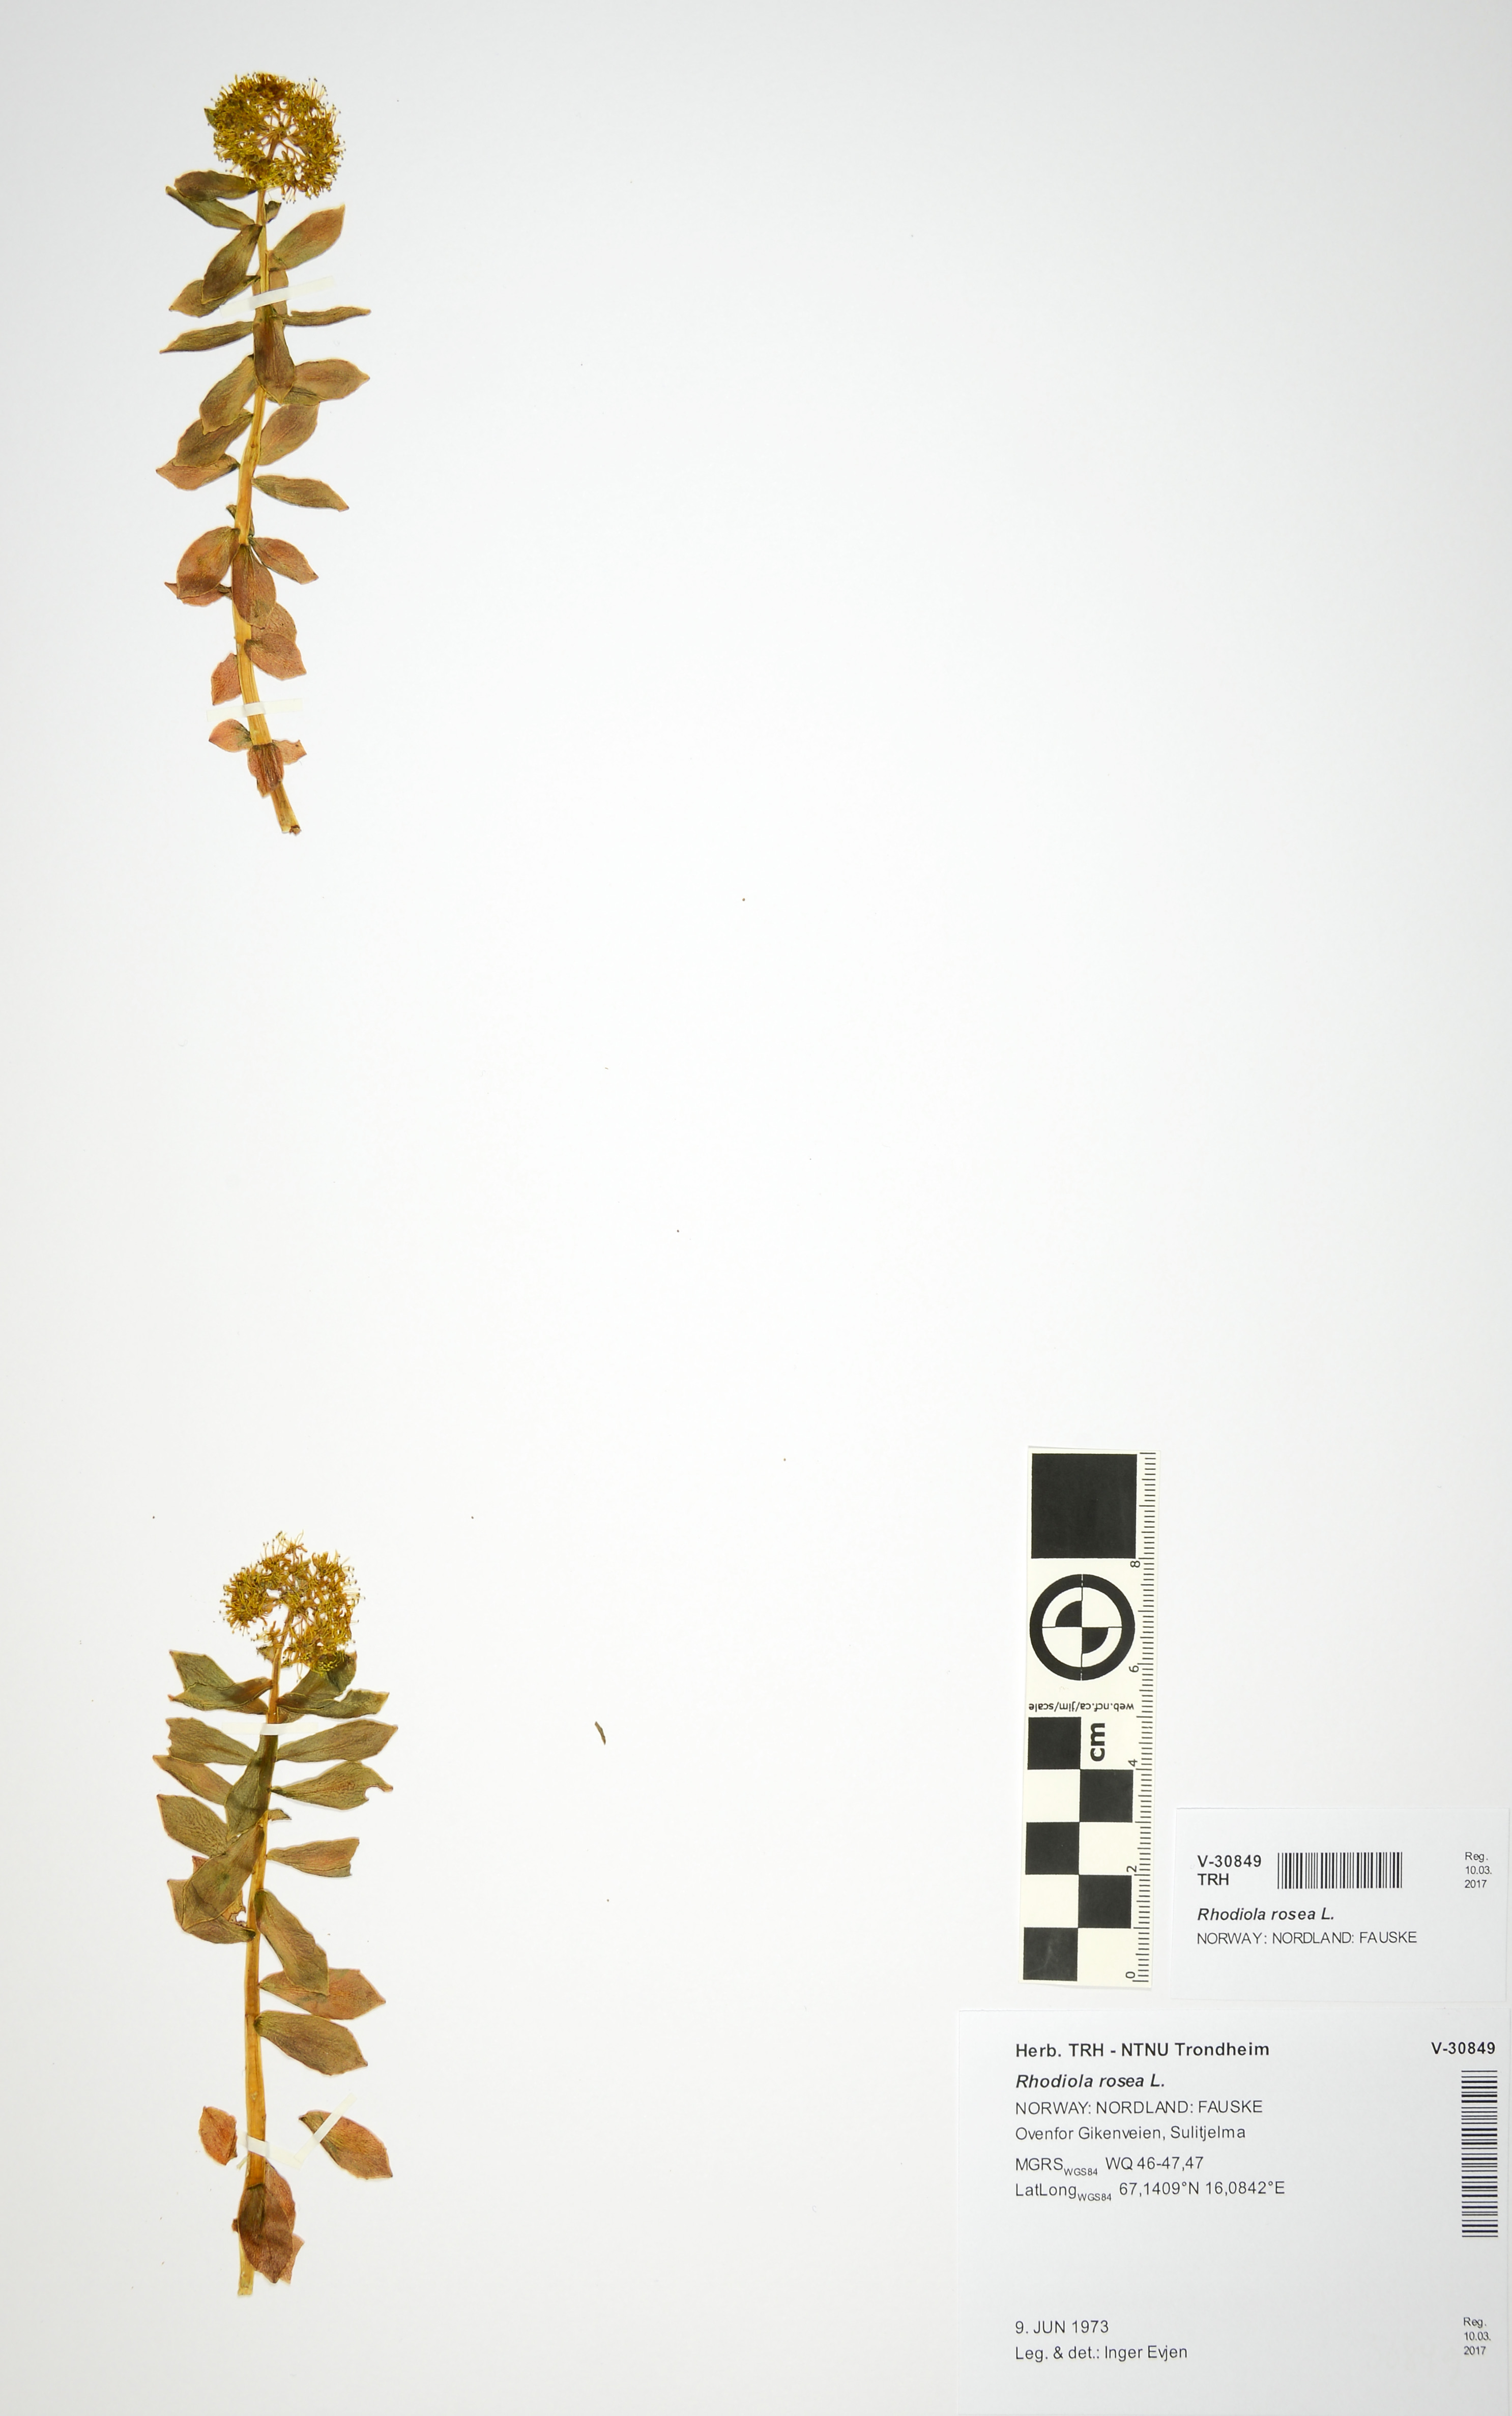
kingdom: Plantae
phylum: Tracheophyta
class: Magnoliopsida
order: Saxifragales
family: Crassulaceae
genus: Rhodiola
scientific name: Rhodiola rosea
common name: Roseroot
